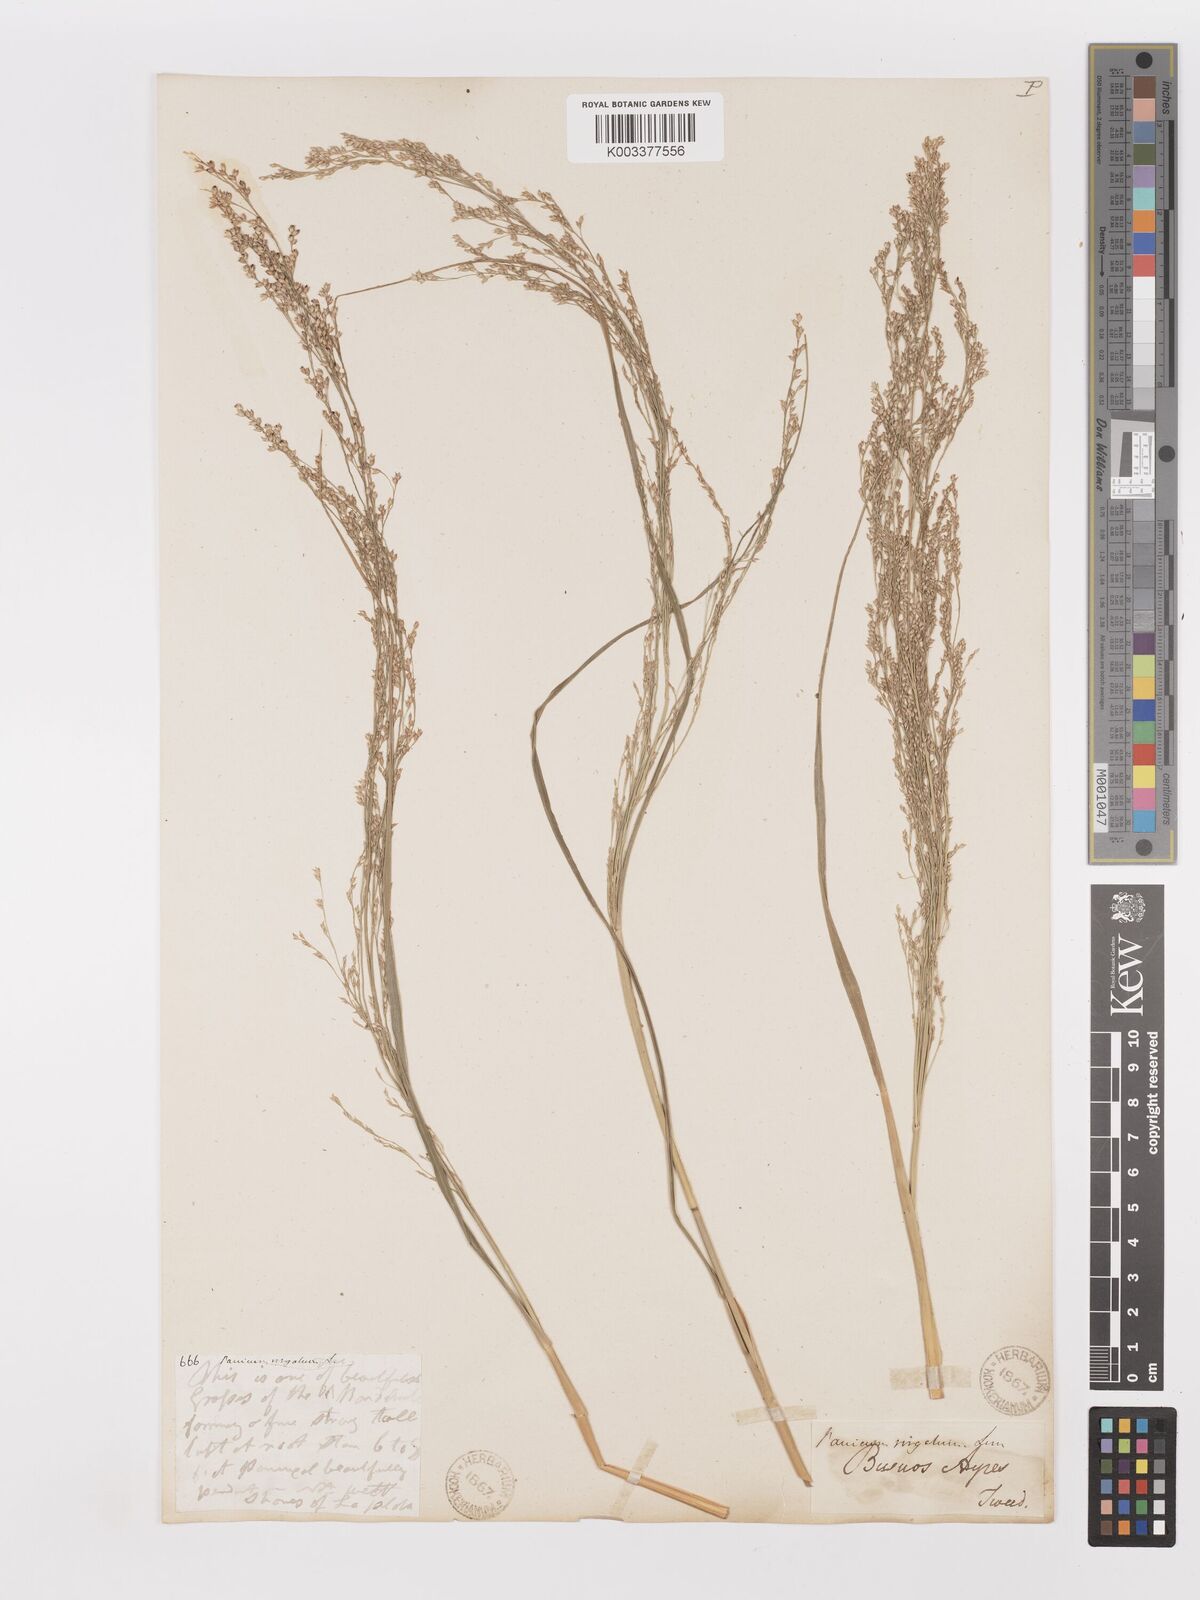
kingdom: Plantae
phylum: Tracheophyta
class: Liliopsida
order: Poales
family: Poaceae
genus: Panicum
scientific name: Panicum tricholaenoides
